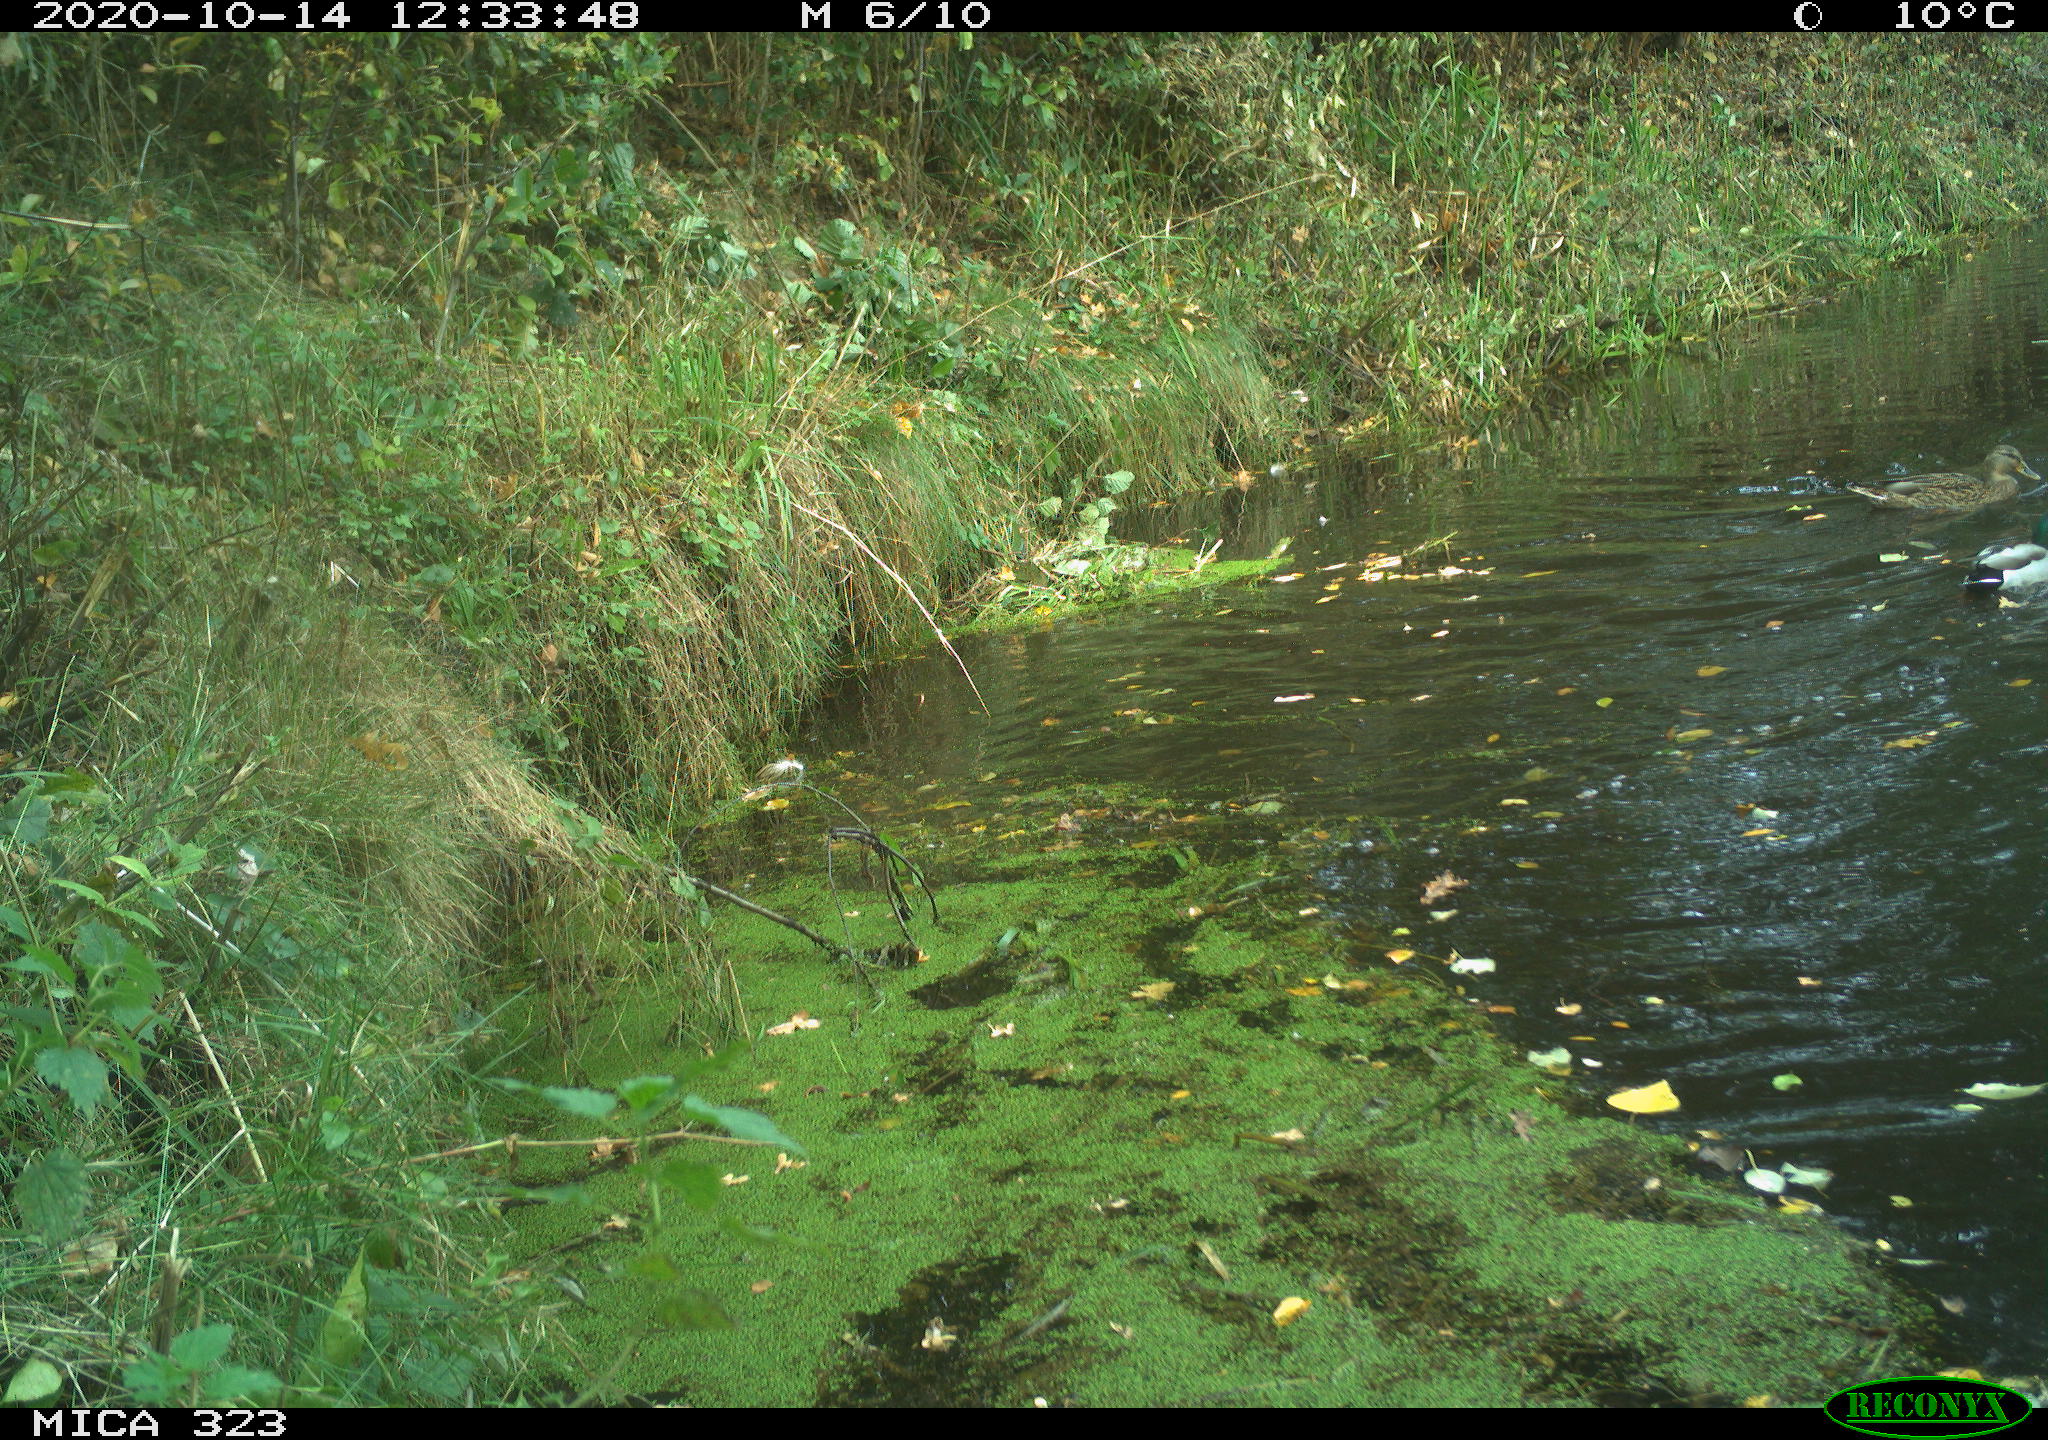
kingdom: Animalia
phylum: Chordata
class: Aves
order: Anseriformes
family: Anatidae
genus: Anas
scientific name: Anas platyrhynchos
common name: Mallard
